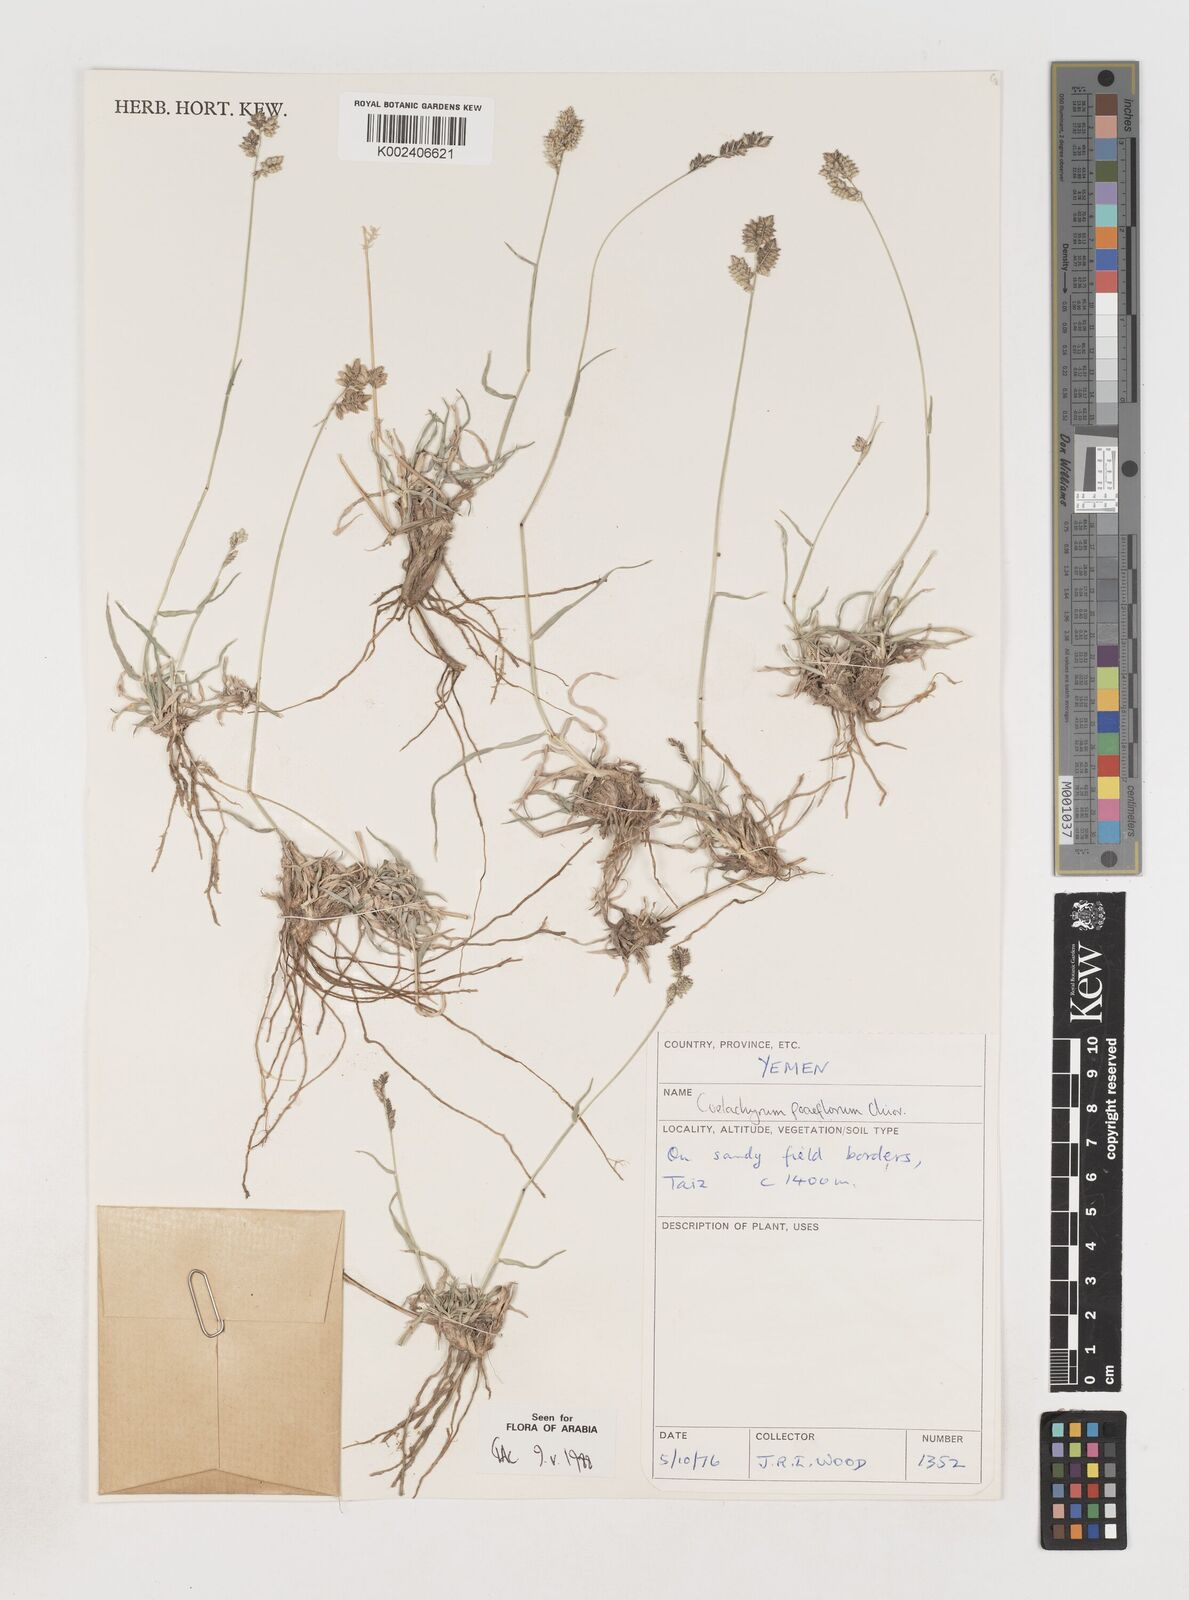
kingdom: Plantae
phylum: Tracheophyta
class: Liliopsida
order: Poales
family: Poaceae
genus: Coelachyrum
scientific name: Coelachyrum poiflorum
